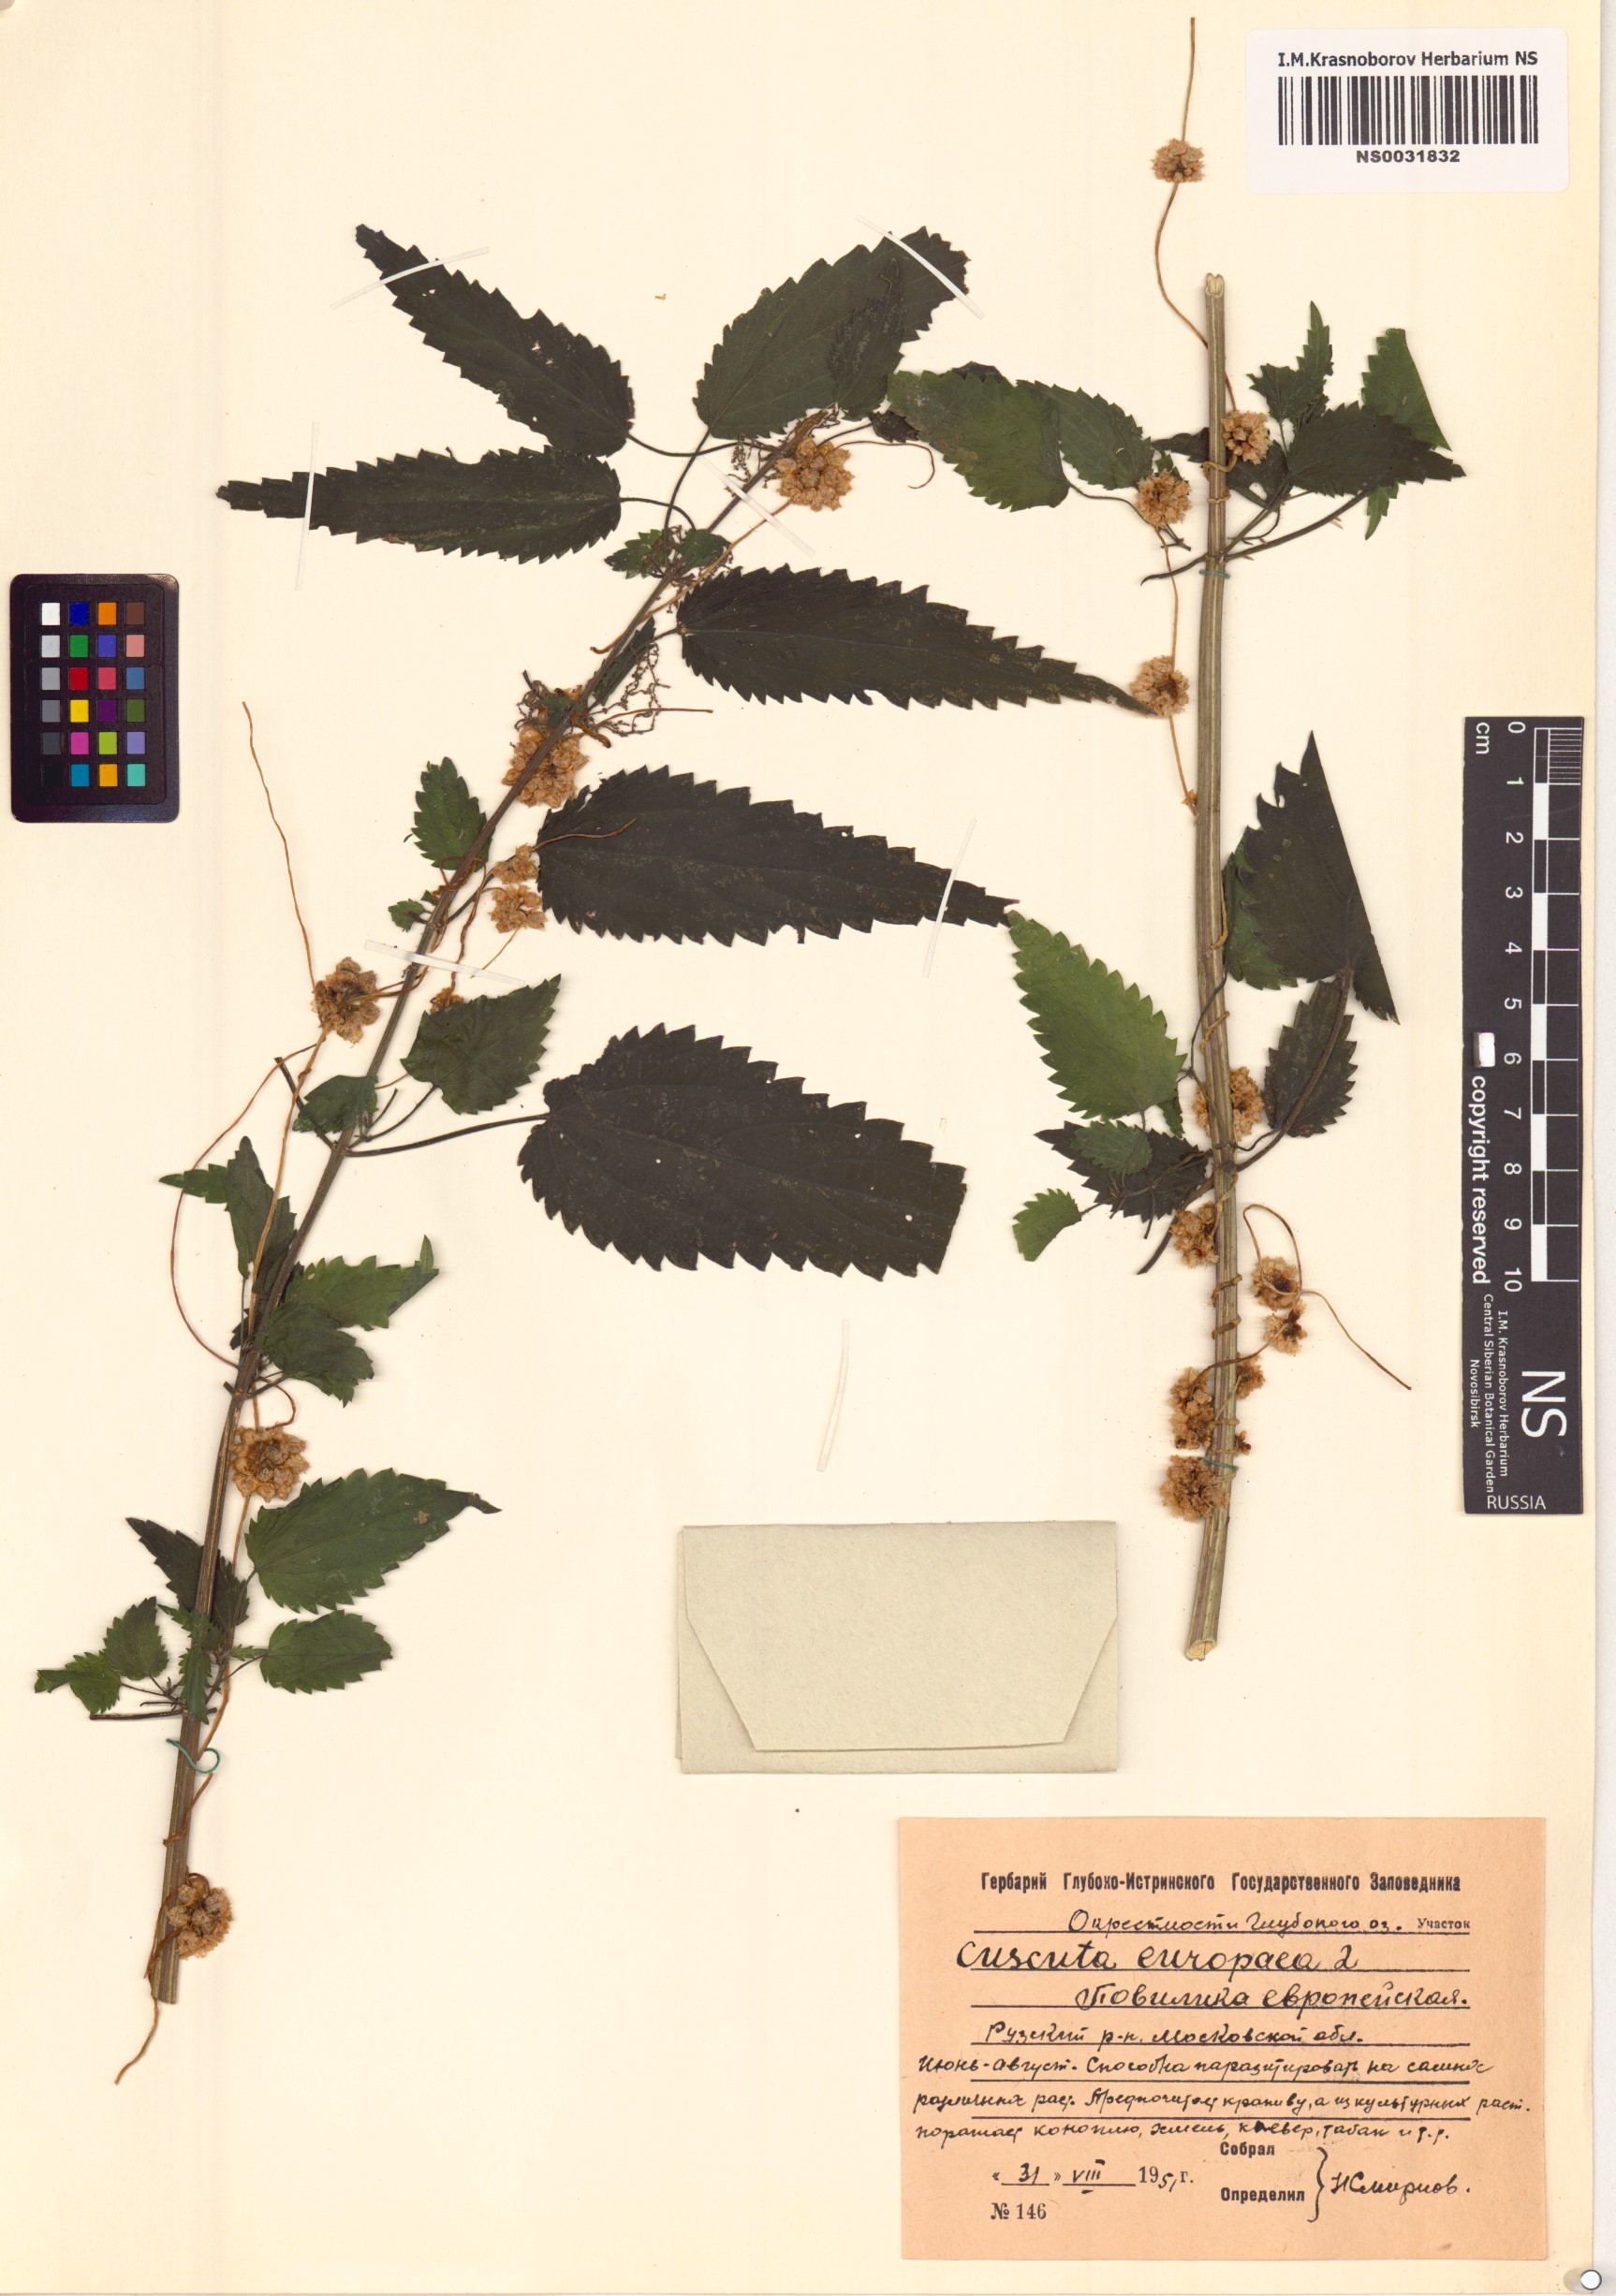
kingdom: Plantae
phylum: Tracheophyta
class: Magnoliopsida
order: Solanales
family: Convolvulaceae
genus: Cuscuta
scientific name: Cuscuta europaea
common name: Greater dodder
